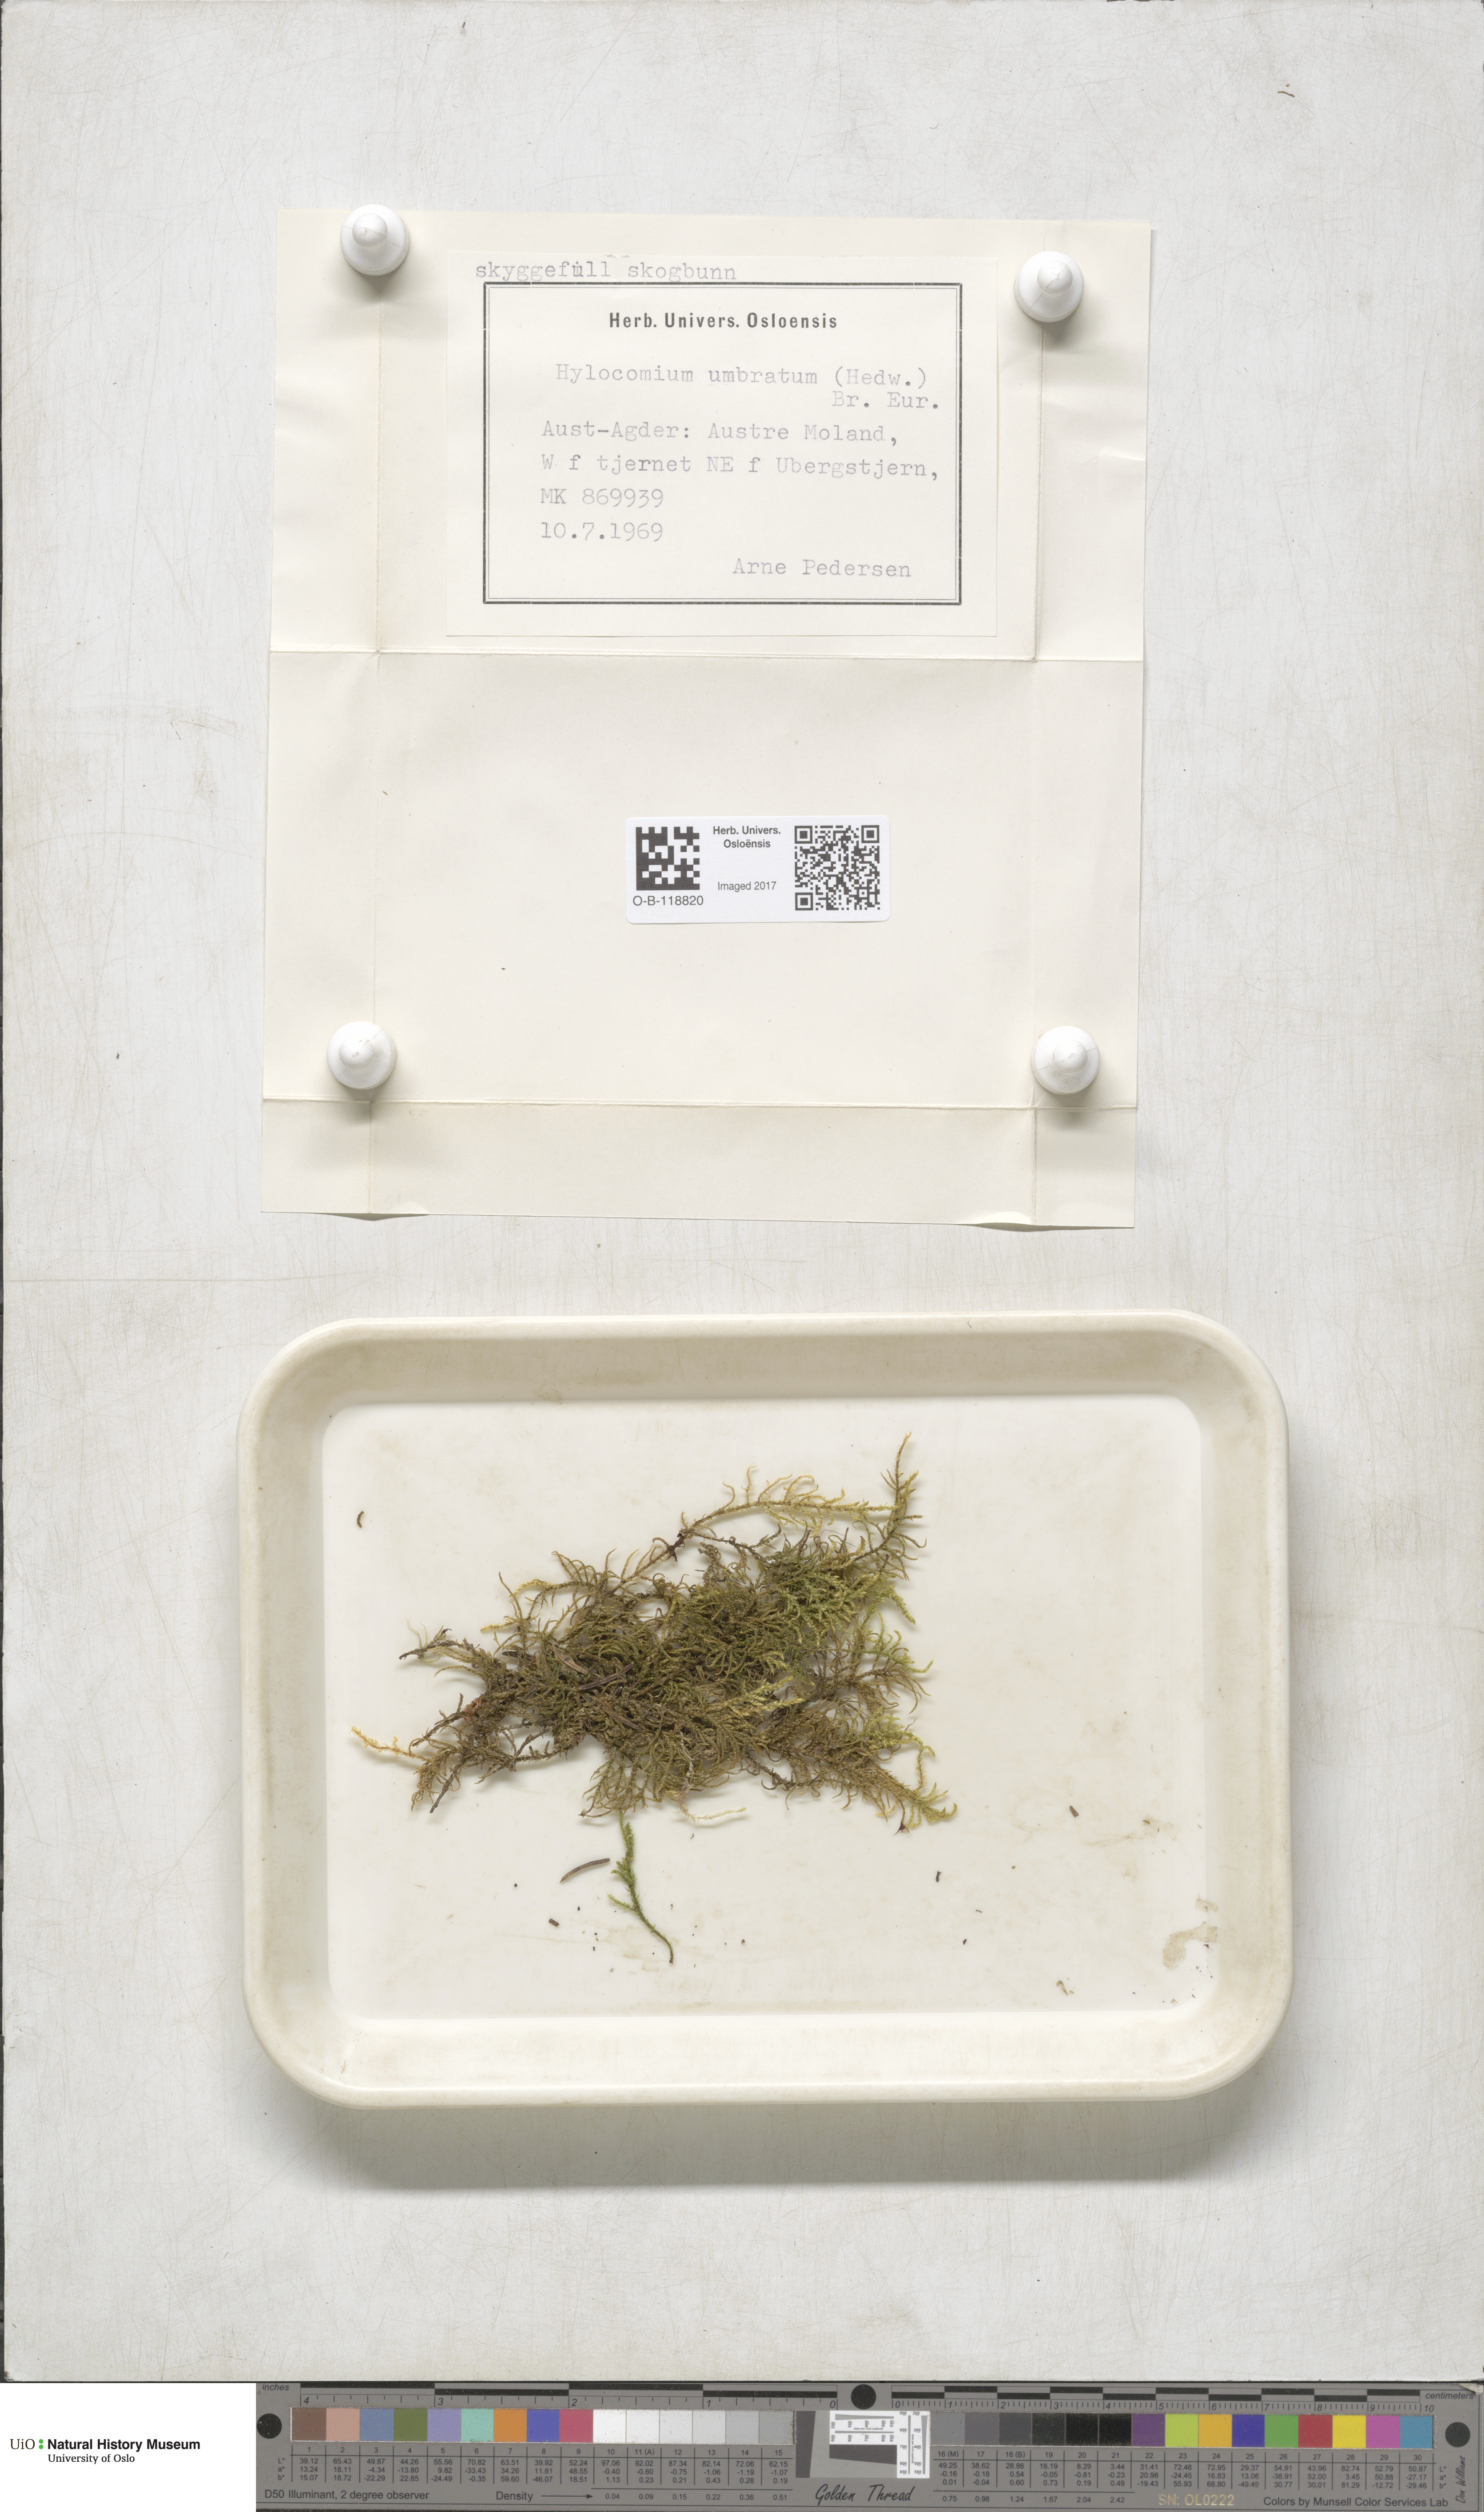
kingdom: Plantae
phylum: Bryophyta
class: Bryopsida
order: Hypnales
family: Hylocomiaceae
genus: Hylocomiastrum
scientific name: Hylocomiastrum umbratum
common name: Shaded woods moss
